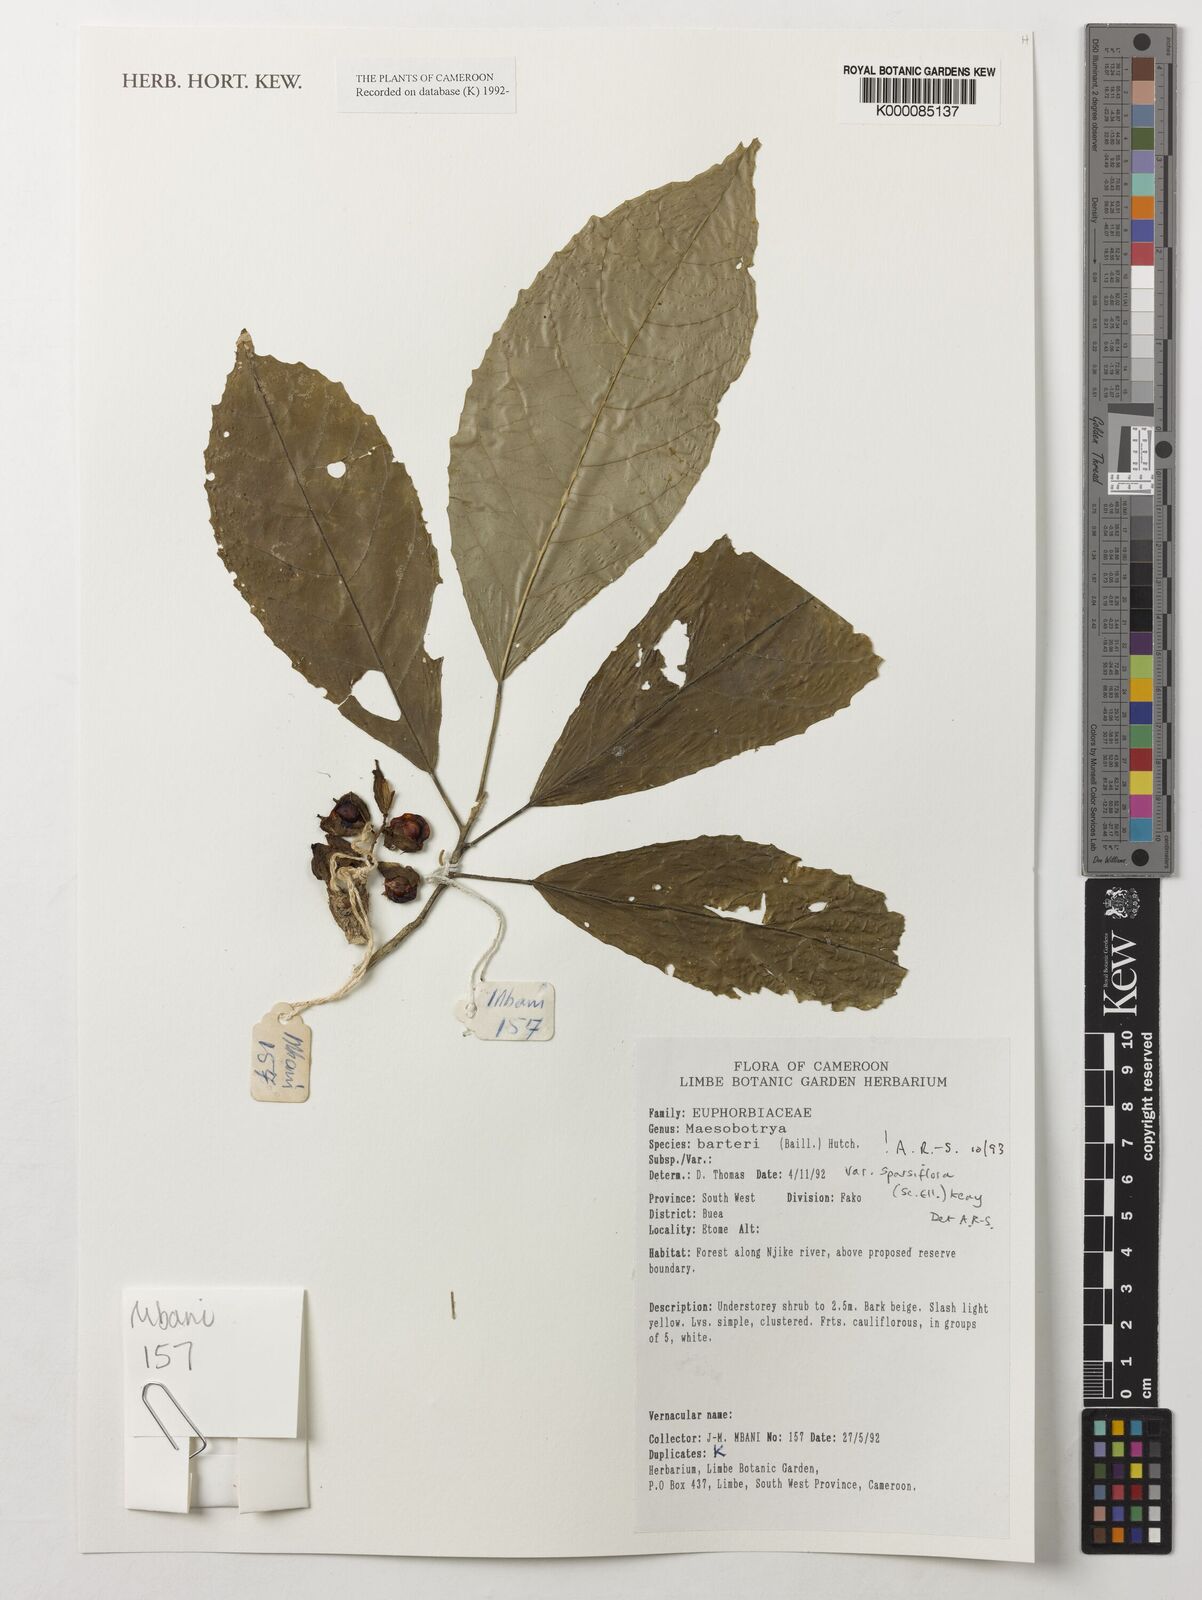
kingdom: Plantae
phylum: Tracheophyta
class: Magnoliopsida
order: Malpighiales
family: Phyllanthaceae
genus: Maesobotrya
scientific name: Maesobotrya barteri
